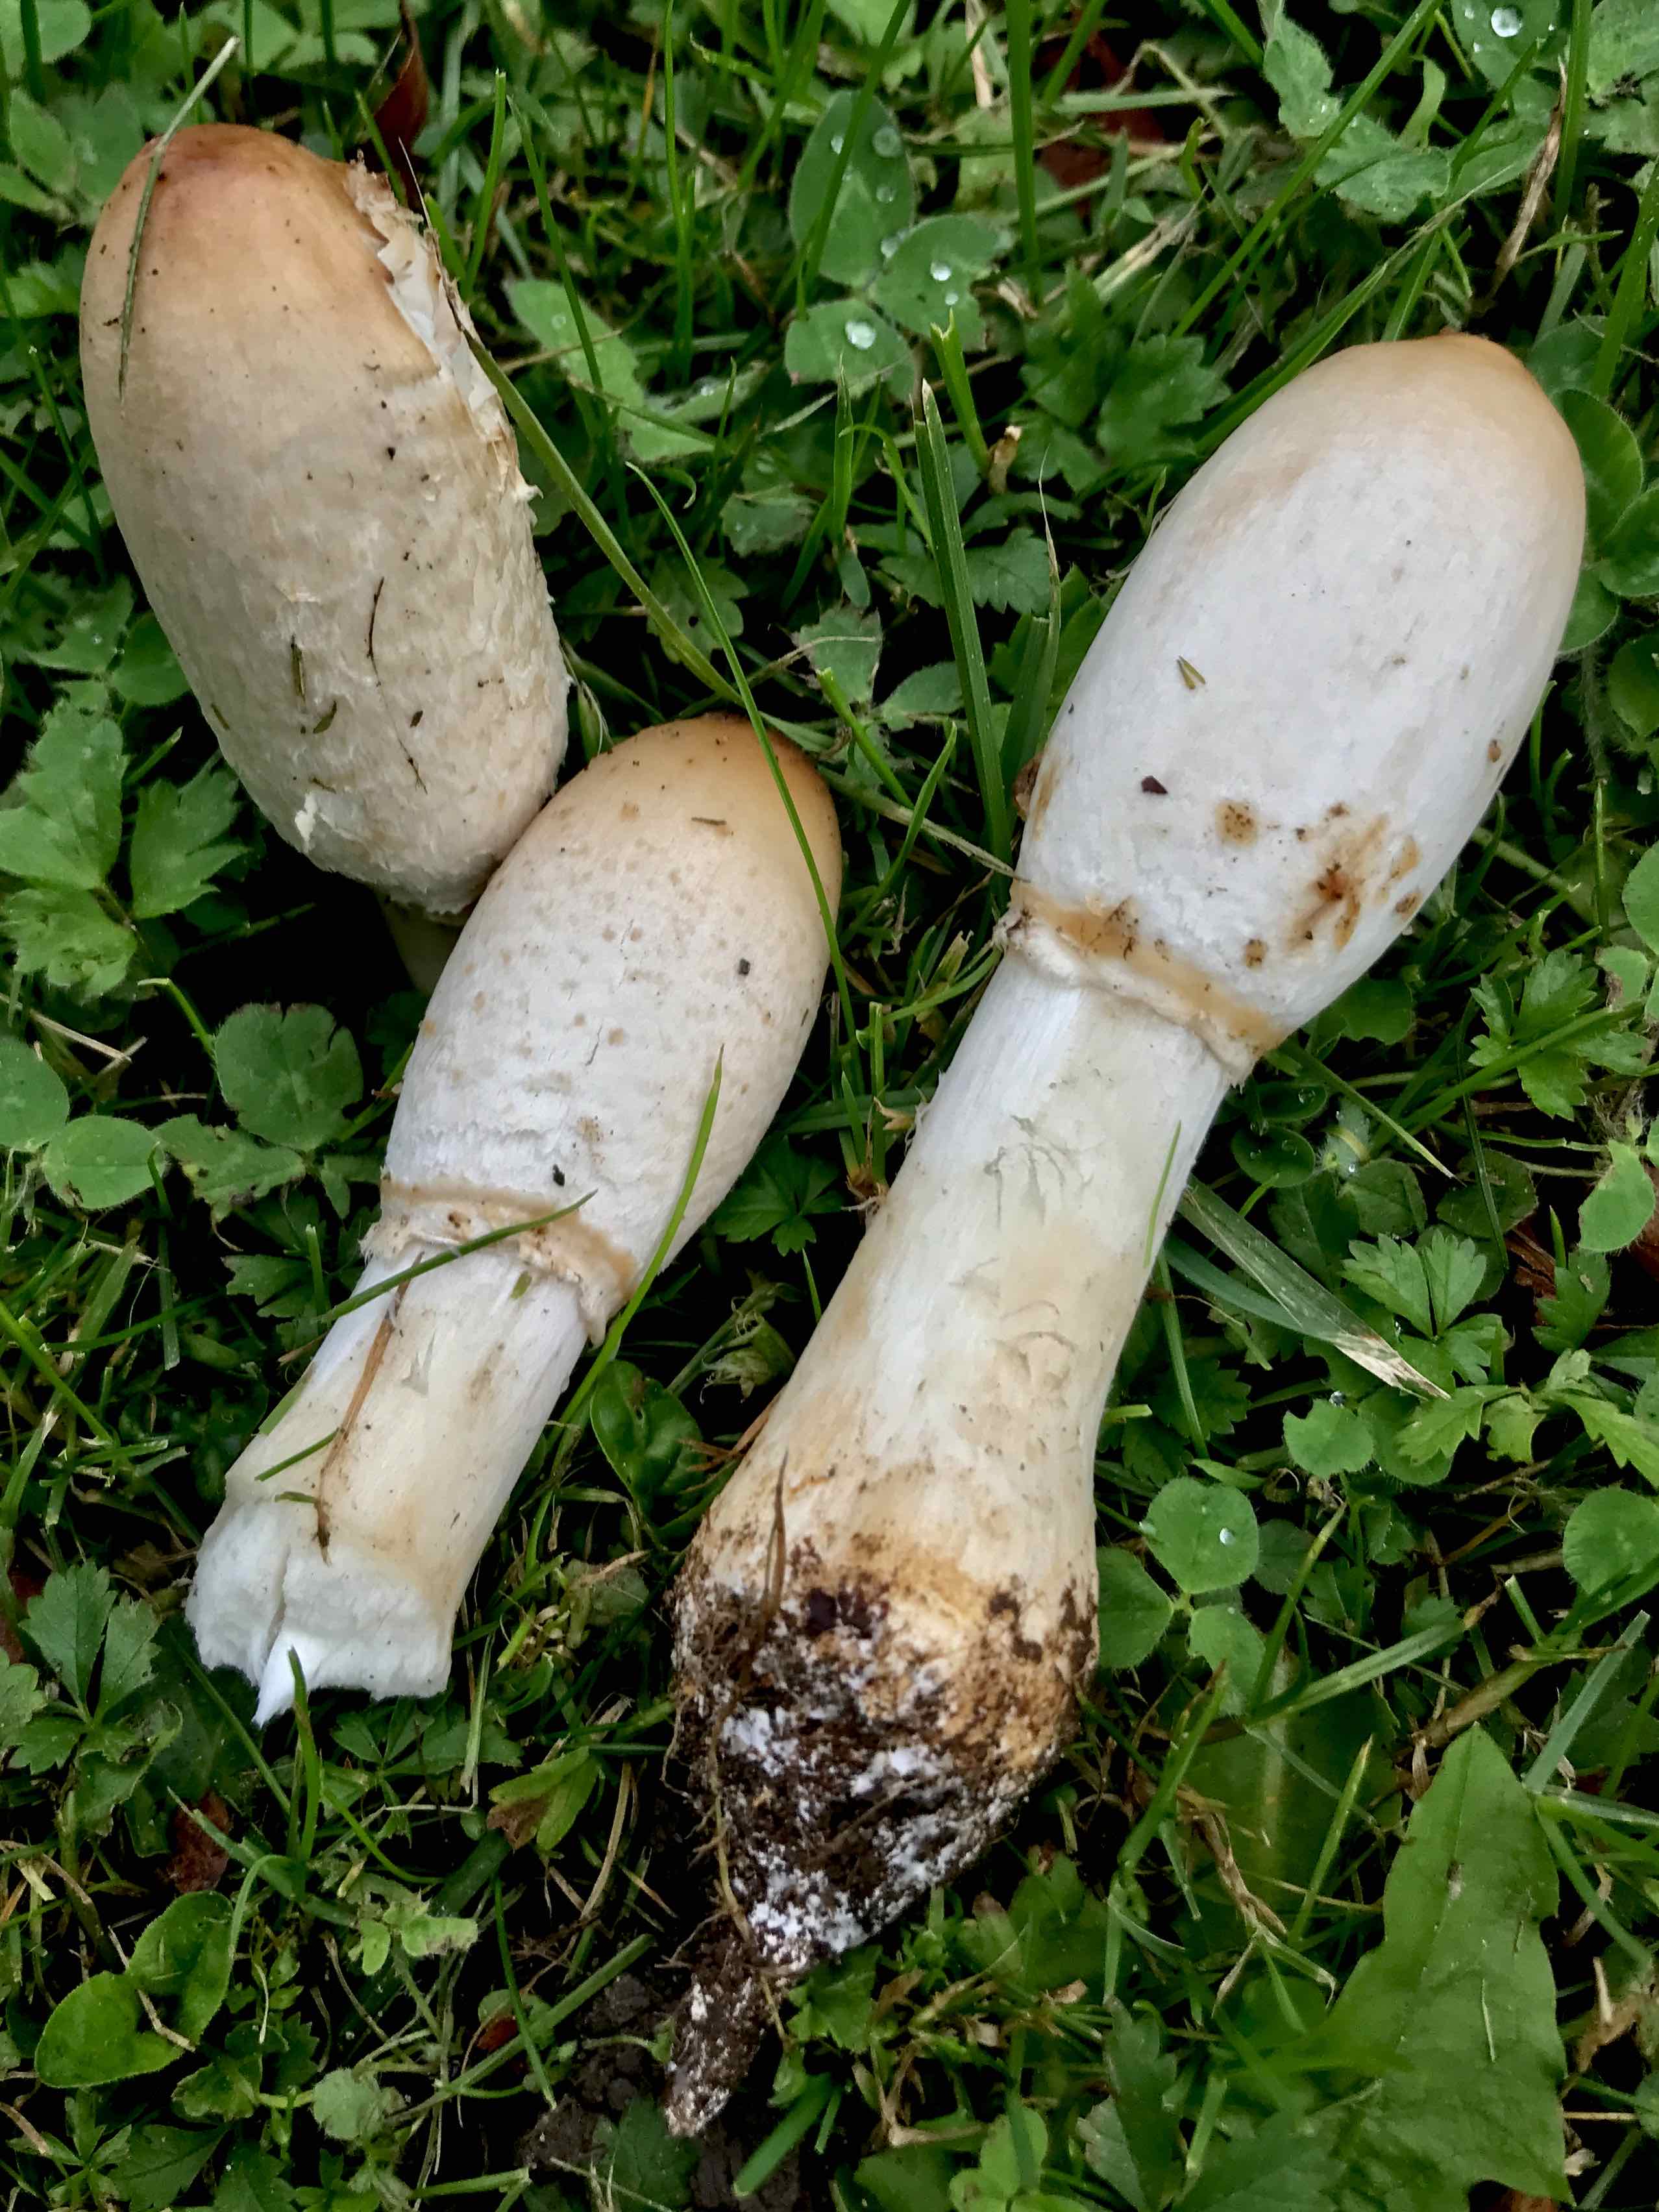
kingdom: Fungi
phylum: Basidiomycota
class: Agaricomycetes
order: Agaricales
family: Agaricaceae
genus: Coprinus
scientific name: Coprinus comatus
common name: stor parykhat
